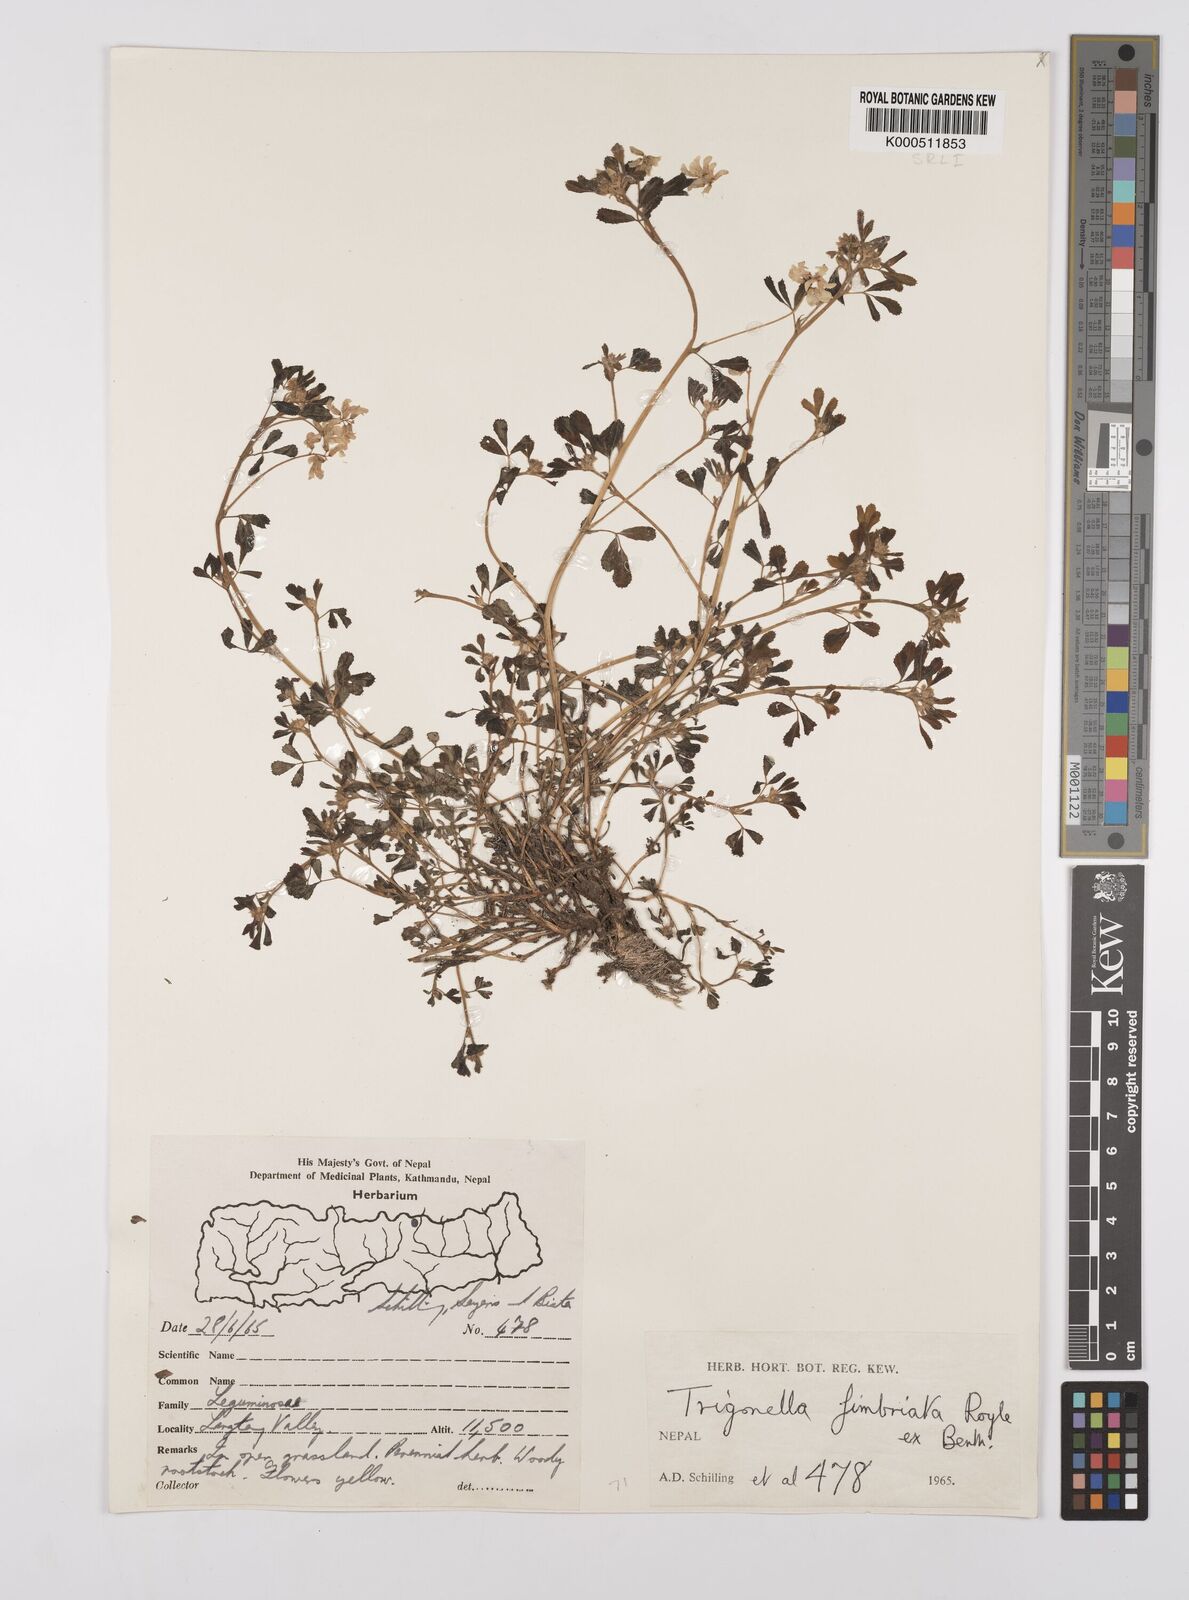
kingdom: Plantae
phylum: Tracheophyta
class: Magnoliopsida
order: Fabales
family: Fabaceae
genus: Trigonella
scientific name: Trigonella emodi
